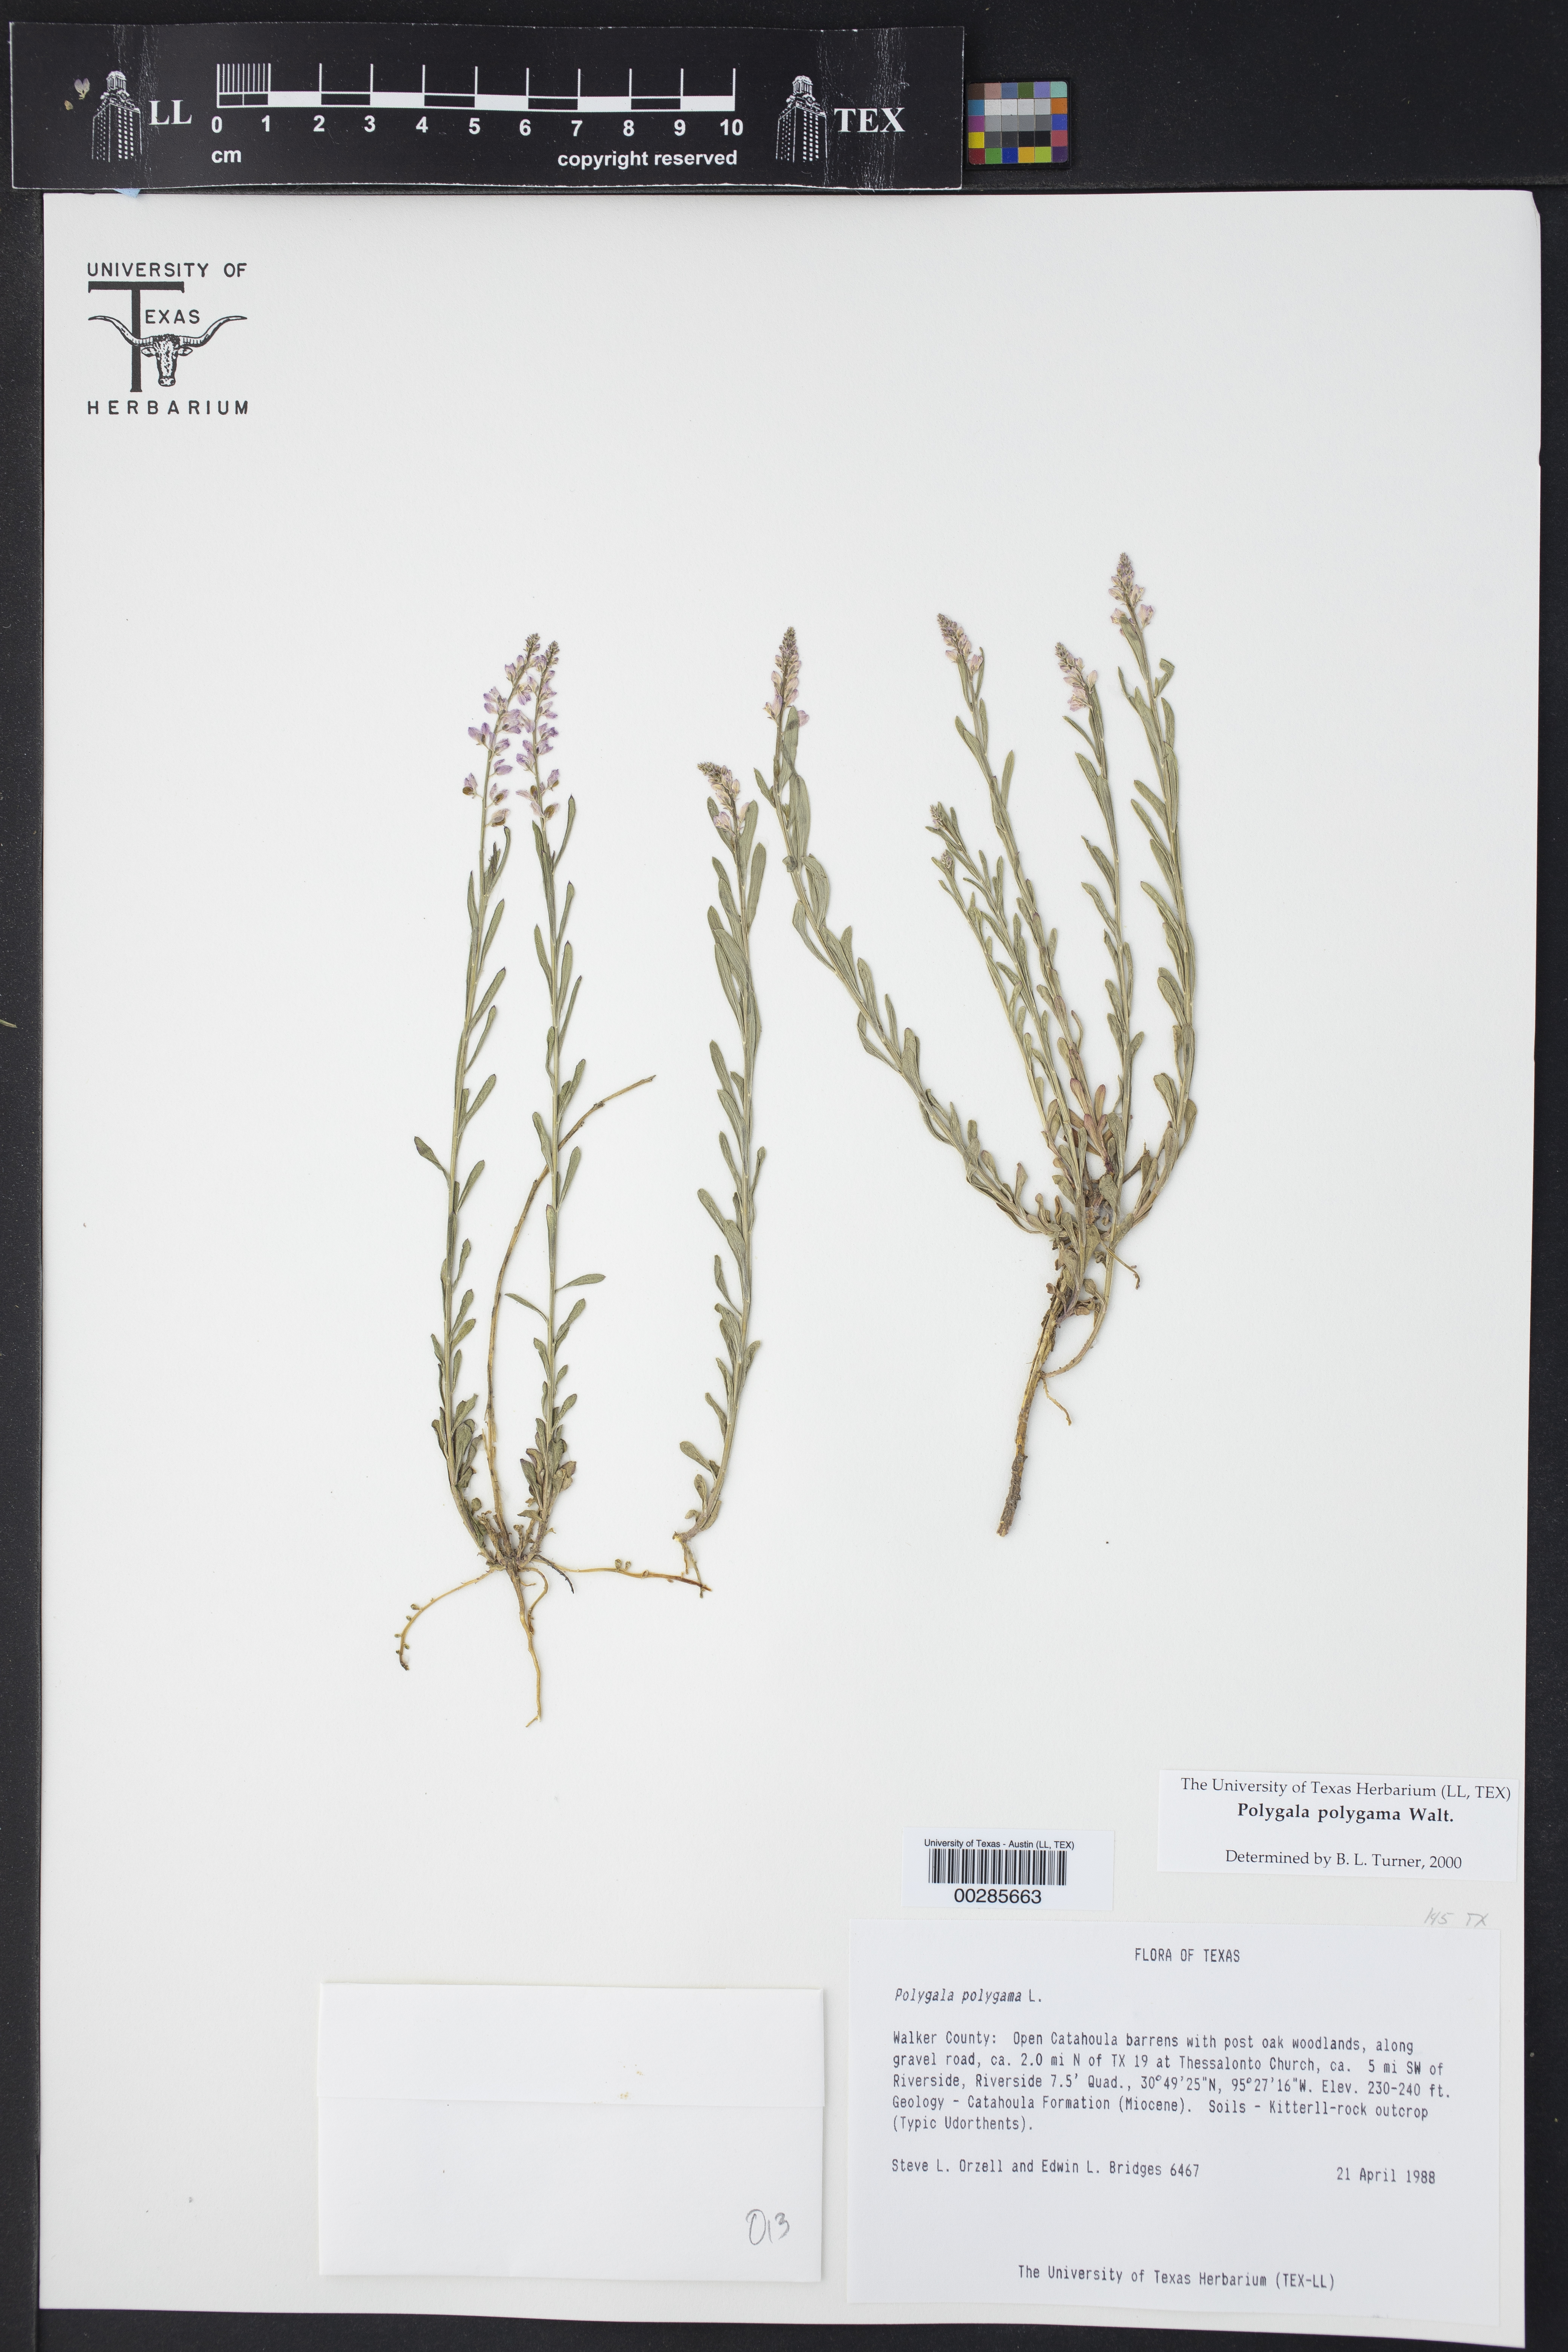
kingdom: Plantae
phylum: Tracheophyta
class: Magnoliopsida
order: Fabales
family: Polygalaceae
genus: Polygala
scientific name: Polygala polygama
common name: Bitter milkwort
